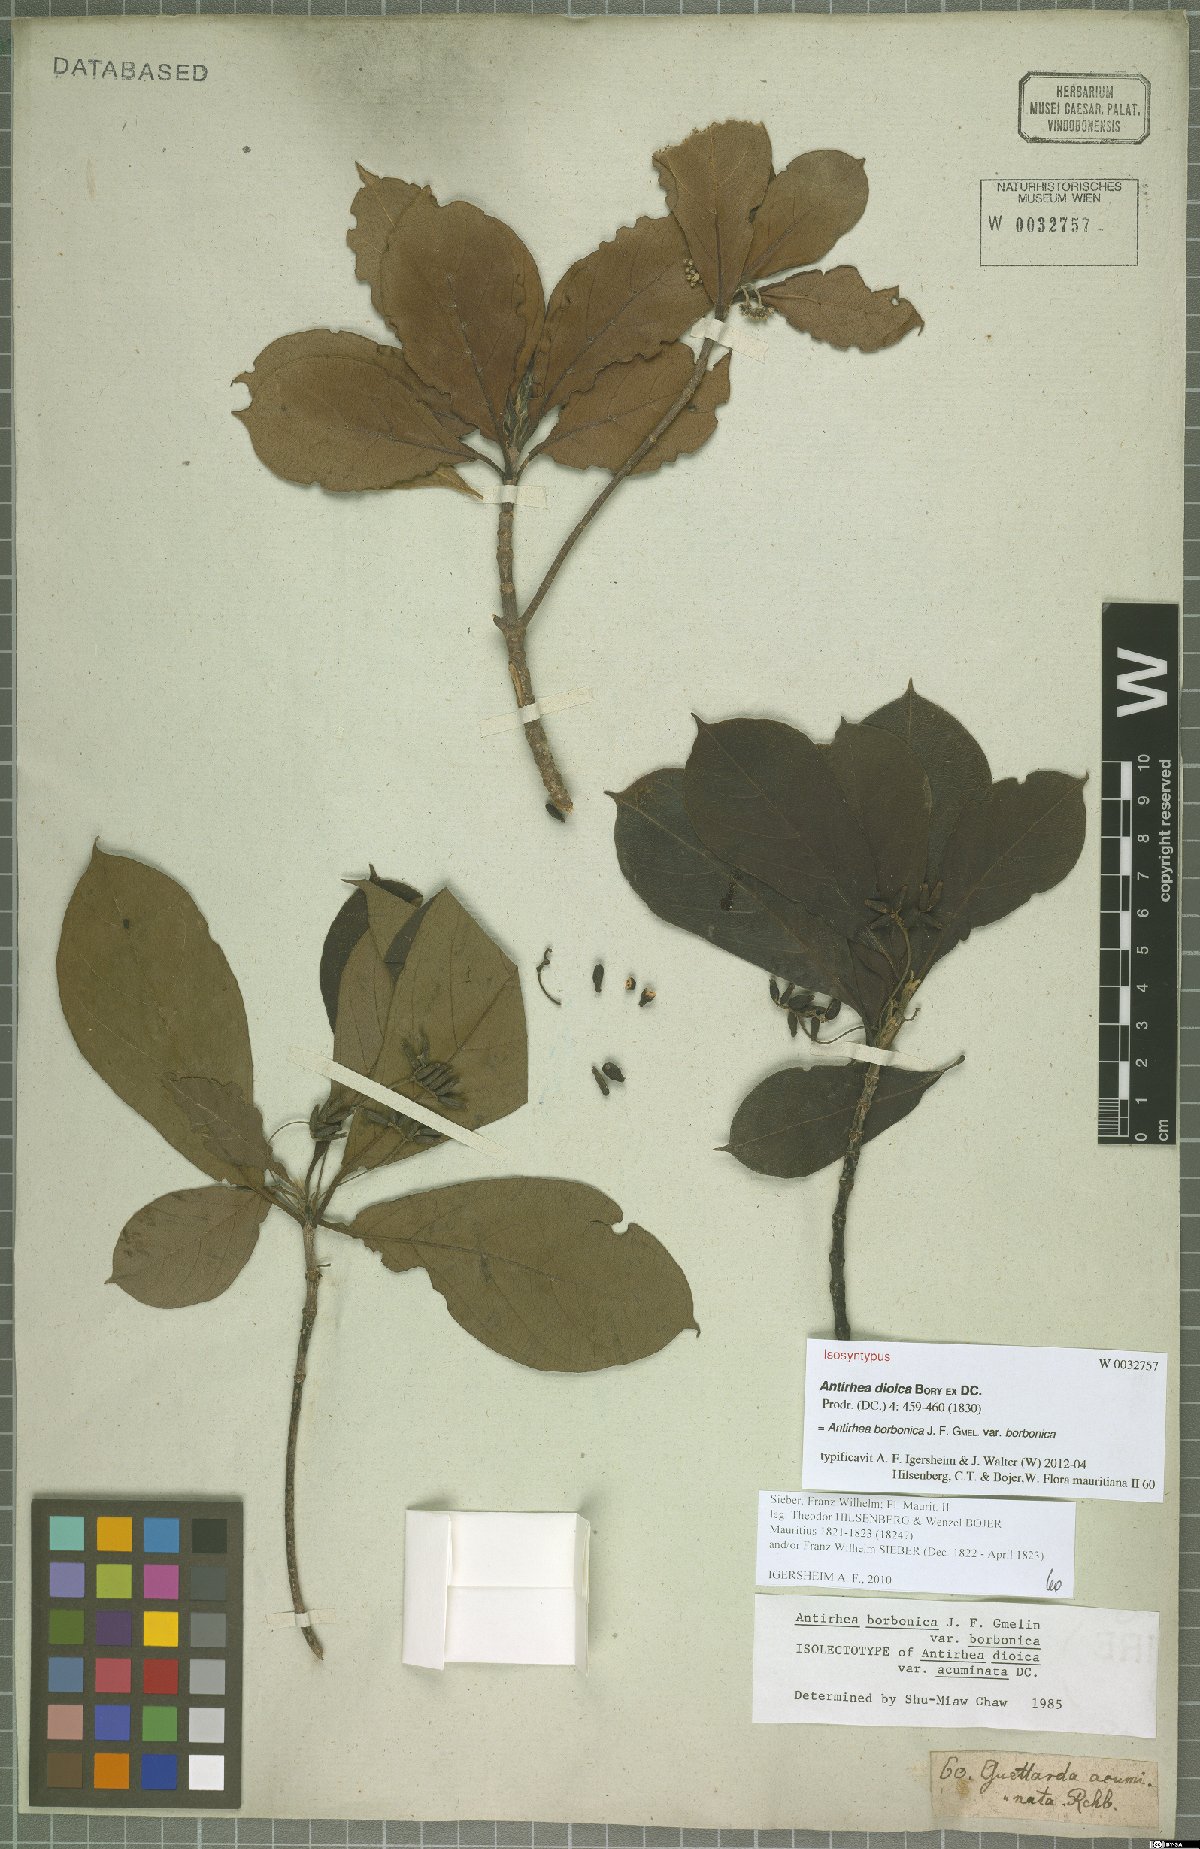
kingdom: Plantae
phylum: Tracheophyta
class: Magnoliopsida
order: Gentianales
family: Rubiaceae
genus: Antirhea
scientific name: Antirhea borbonica
